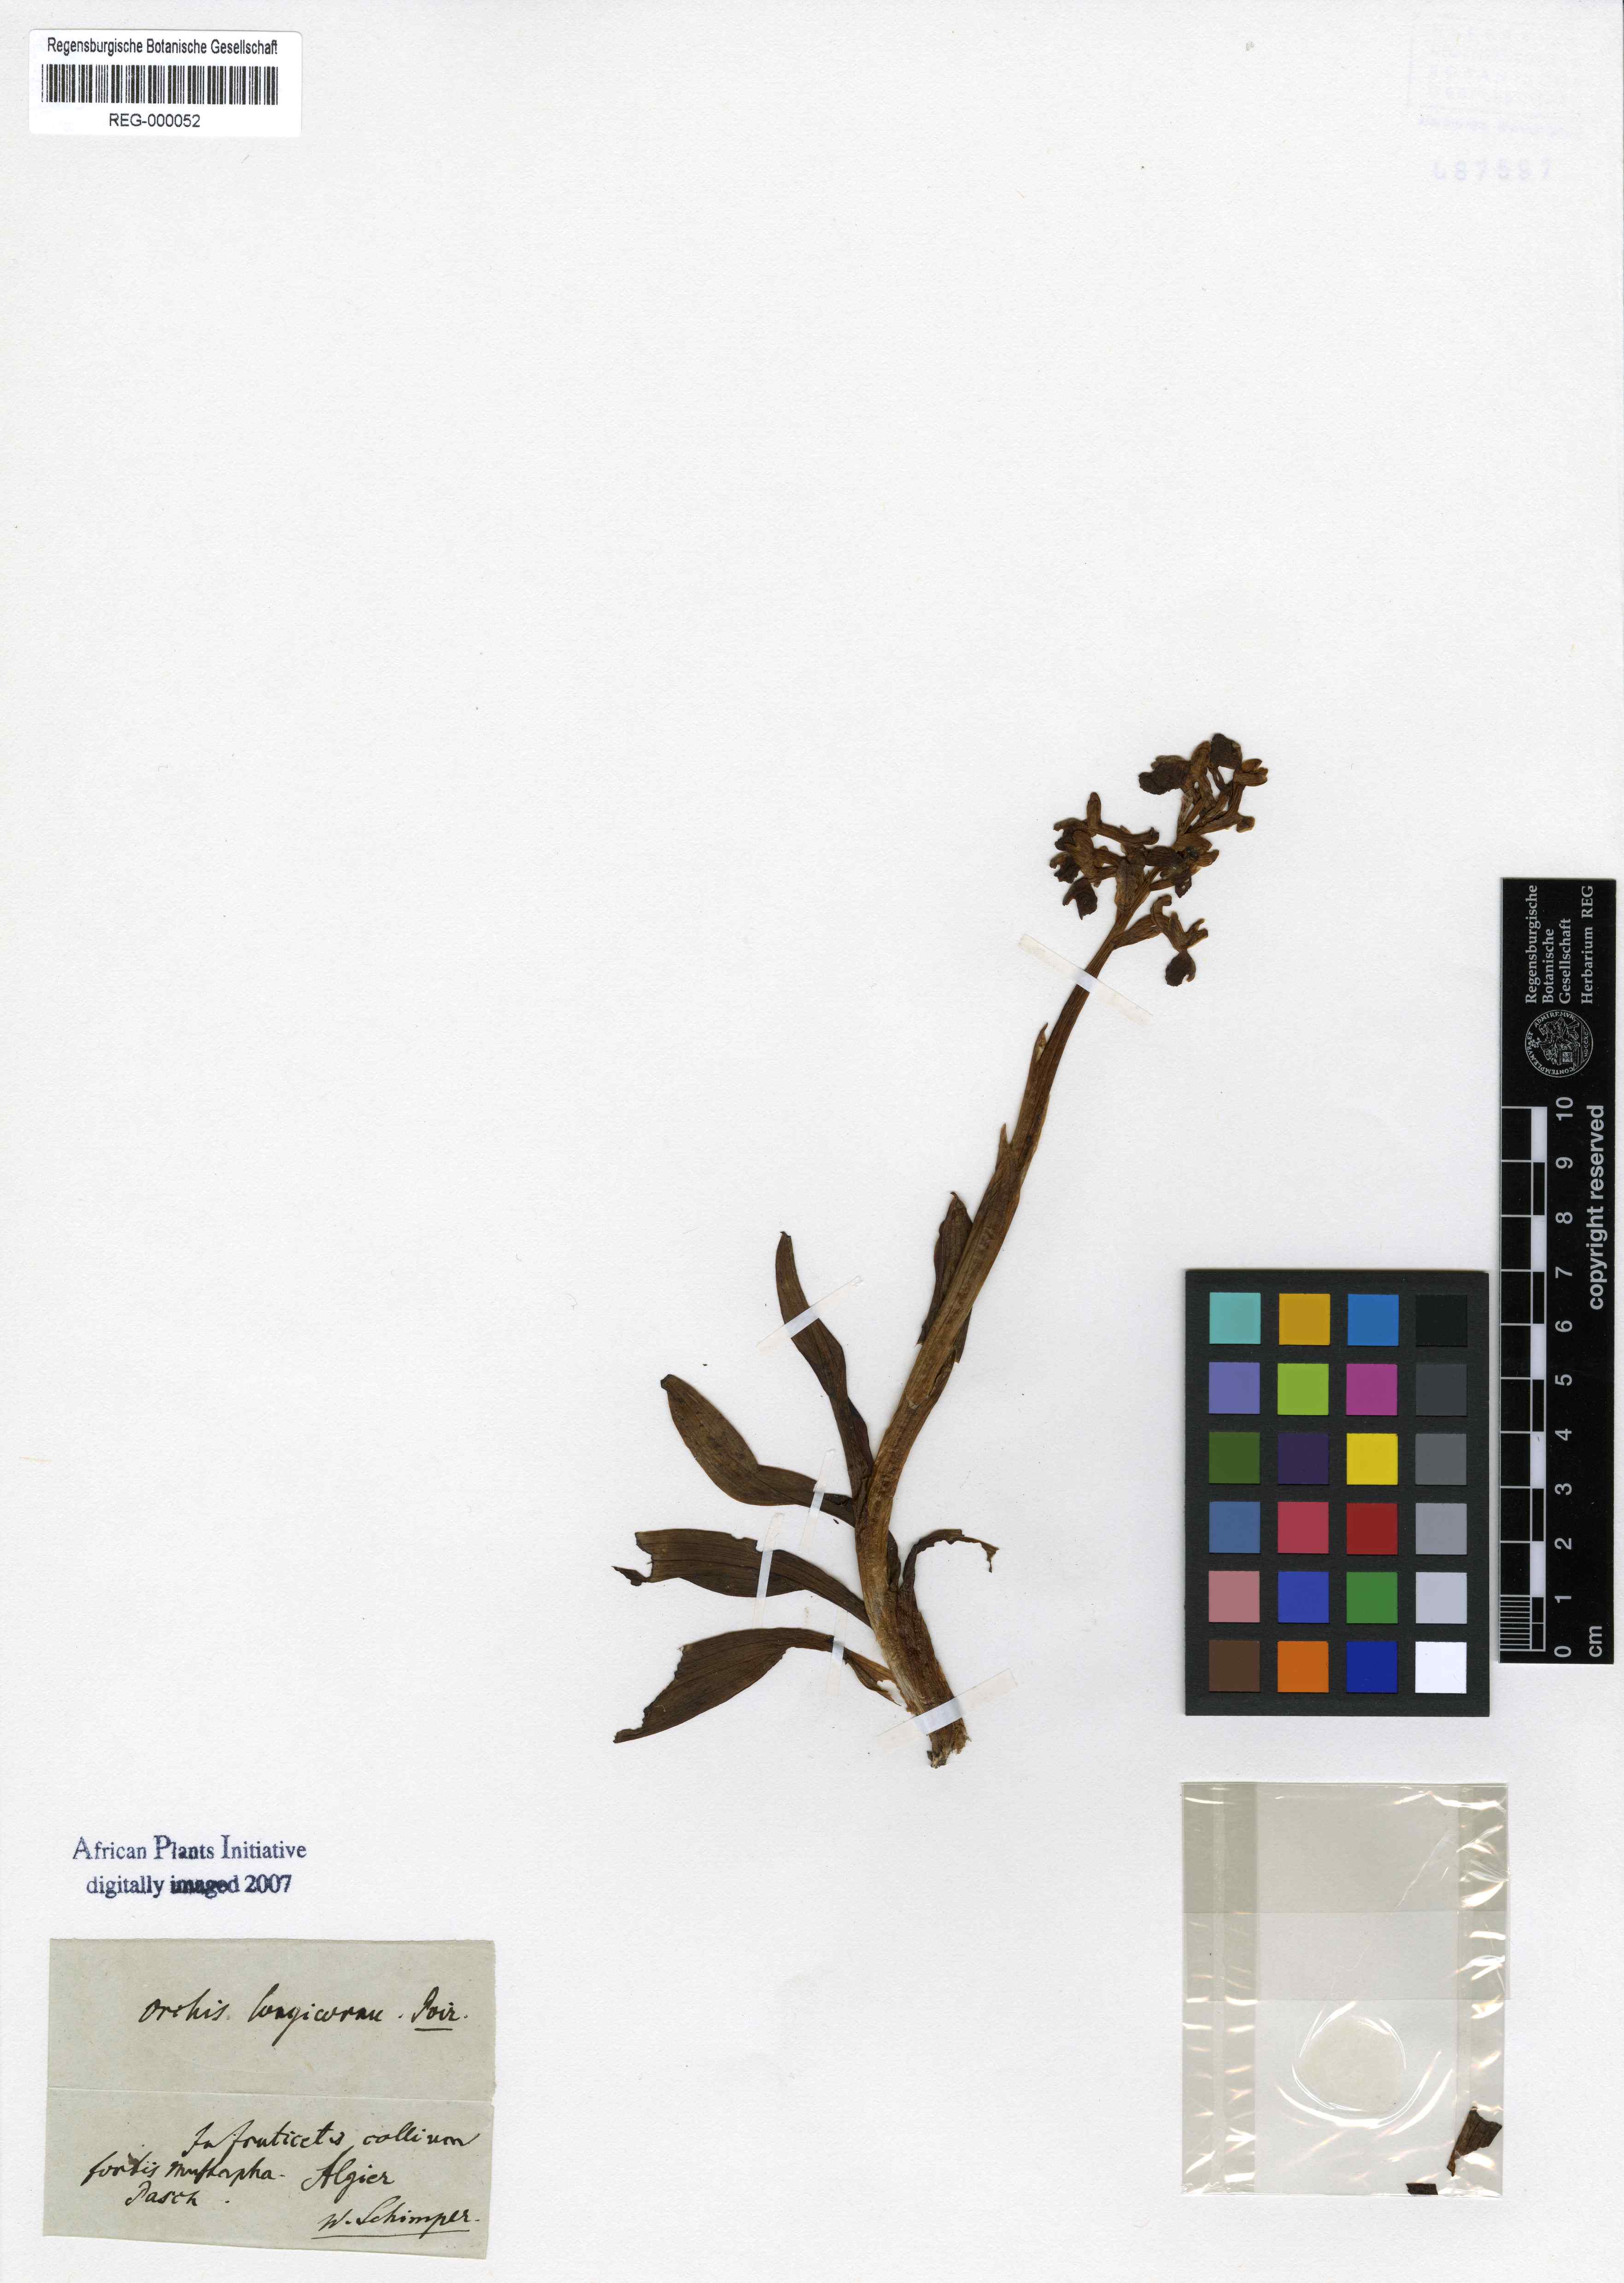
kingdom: Plantae
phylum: Tracheophyta
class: Liliopsida
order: Asparagales
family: Orchidaceae
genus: Anacamptis
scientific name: Anacamptis morio
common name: Green-winged orchid
